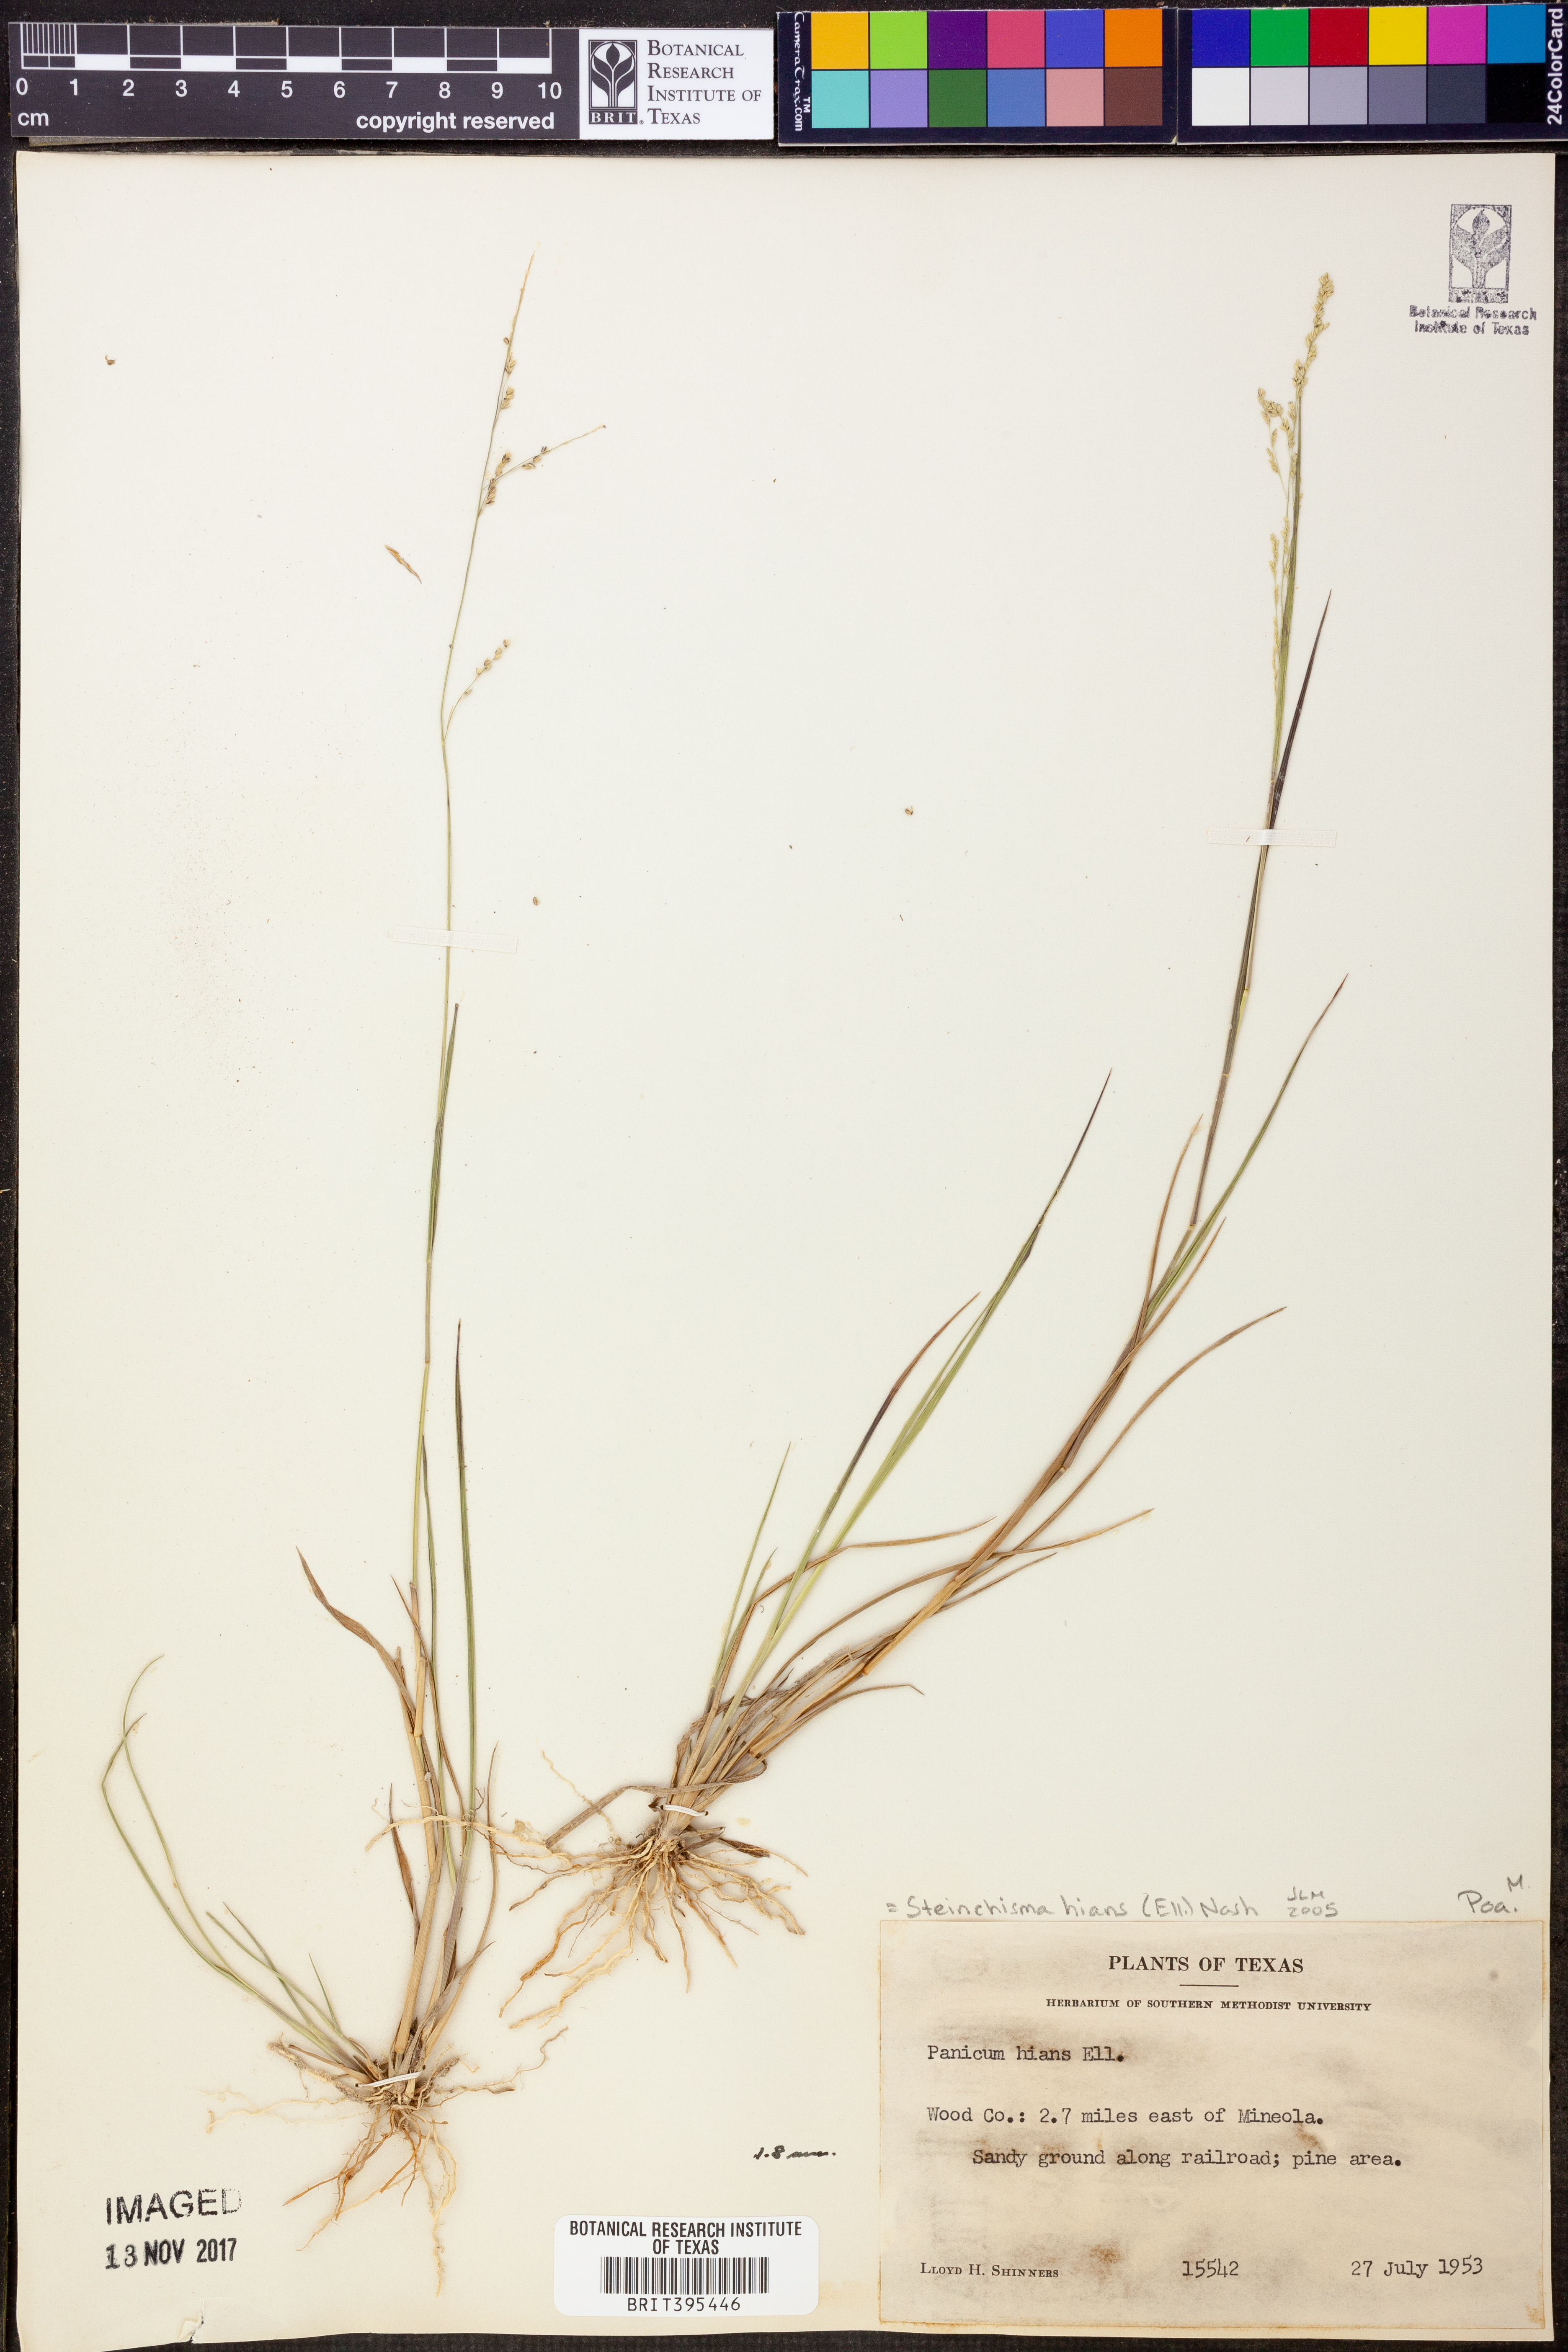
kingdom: Plantae
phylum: Tracheophyta
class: Liliopsida
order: Poales
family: Poaceae
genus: Steinchisma
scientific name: Steinchisma hians
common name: Gaping panic grass
